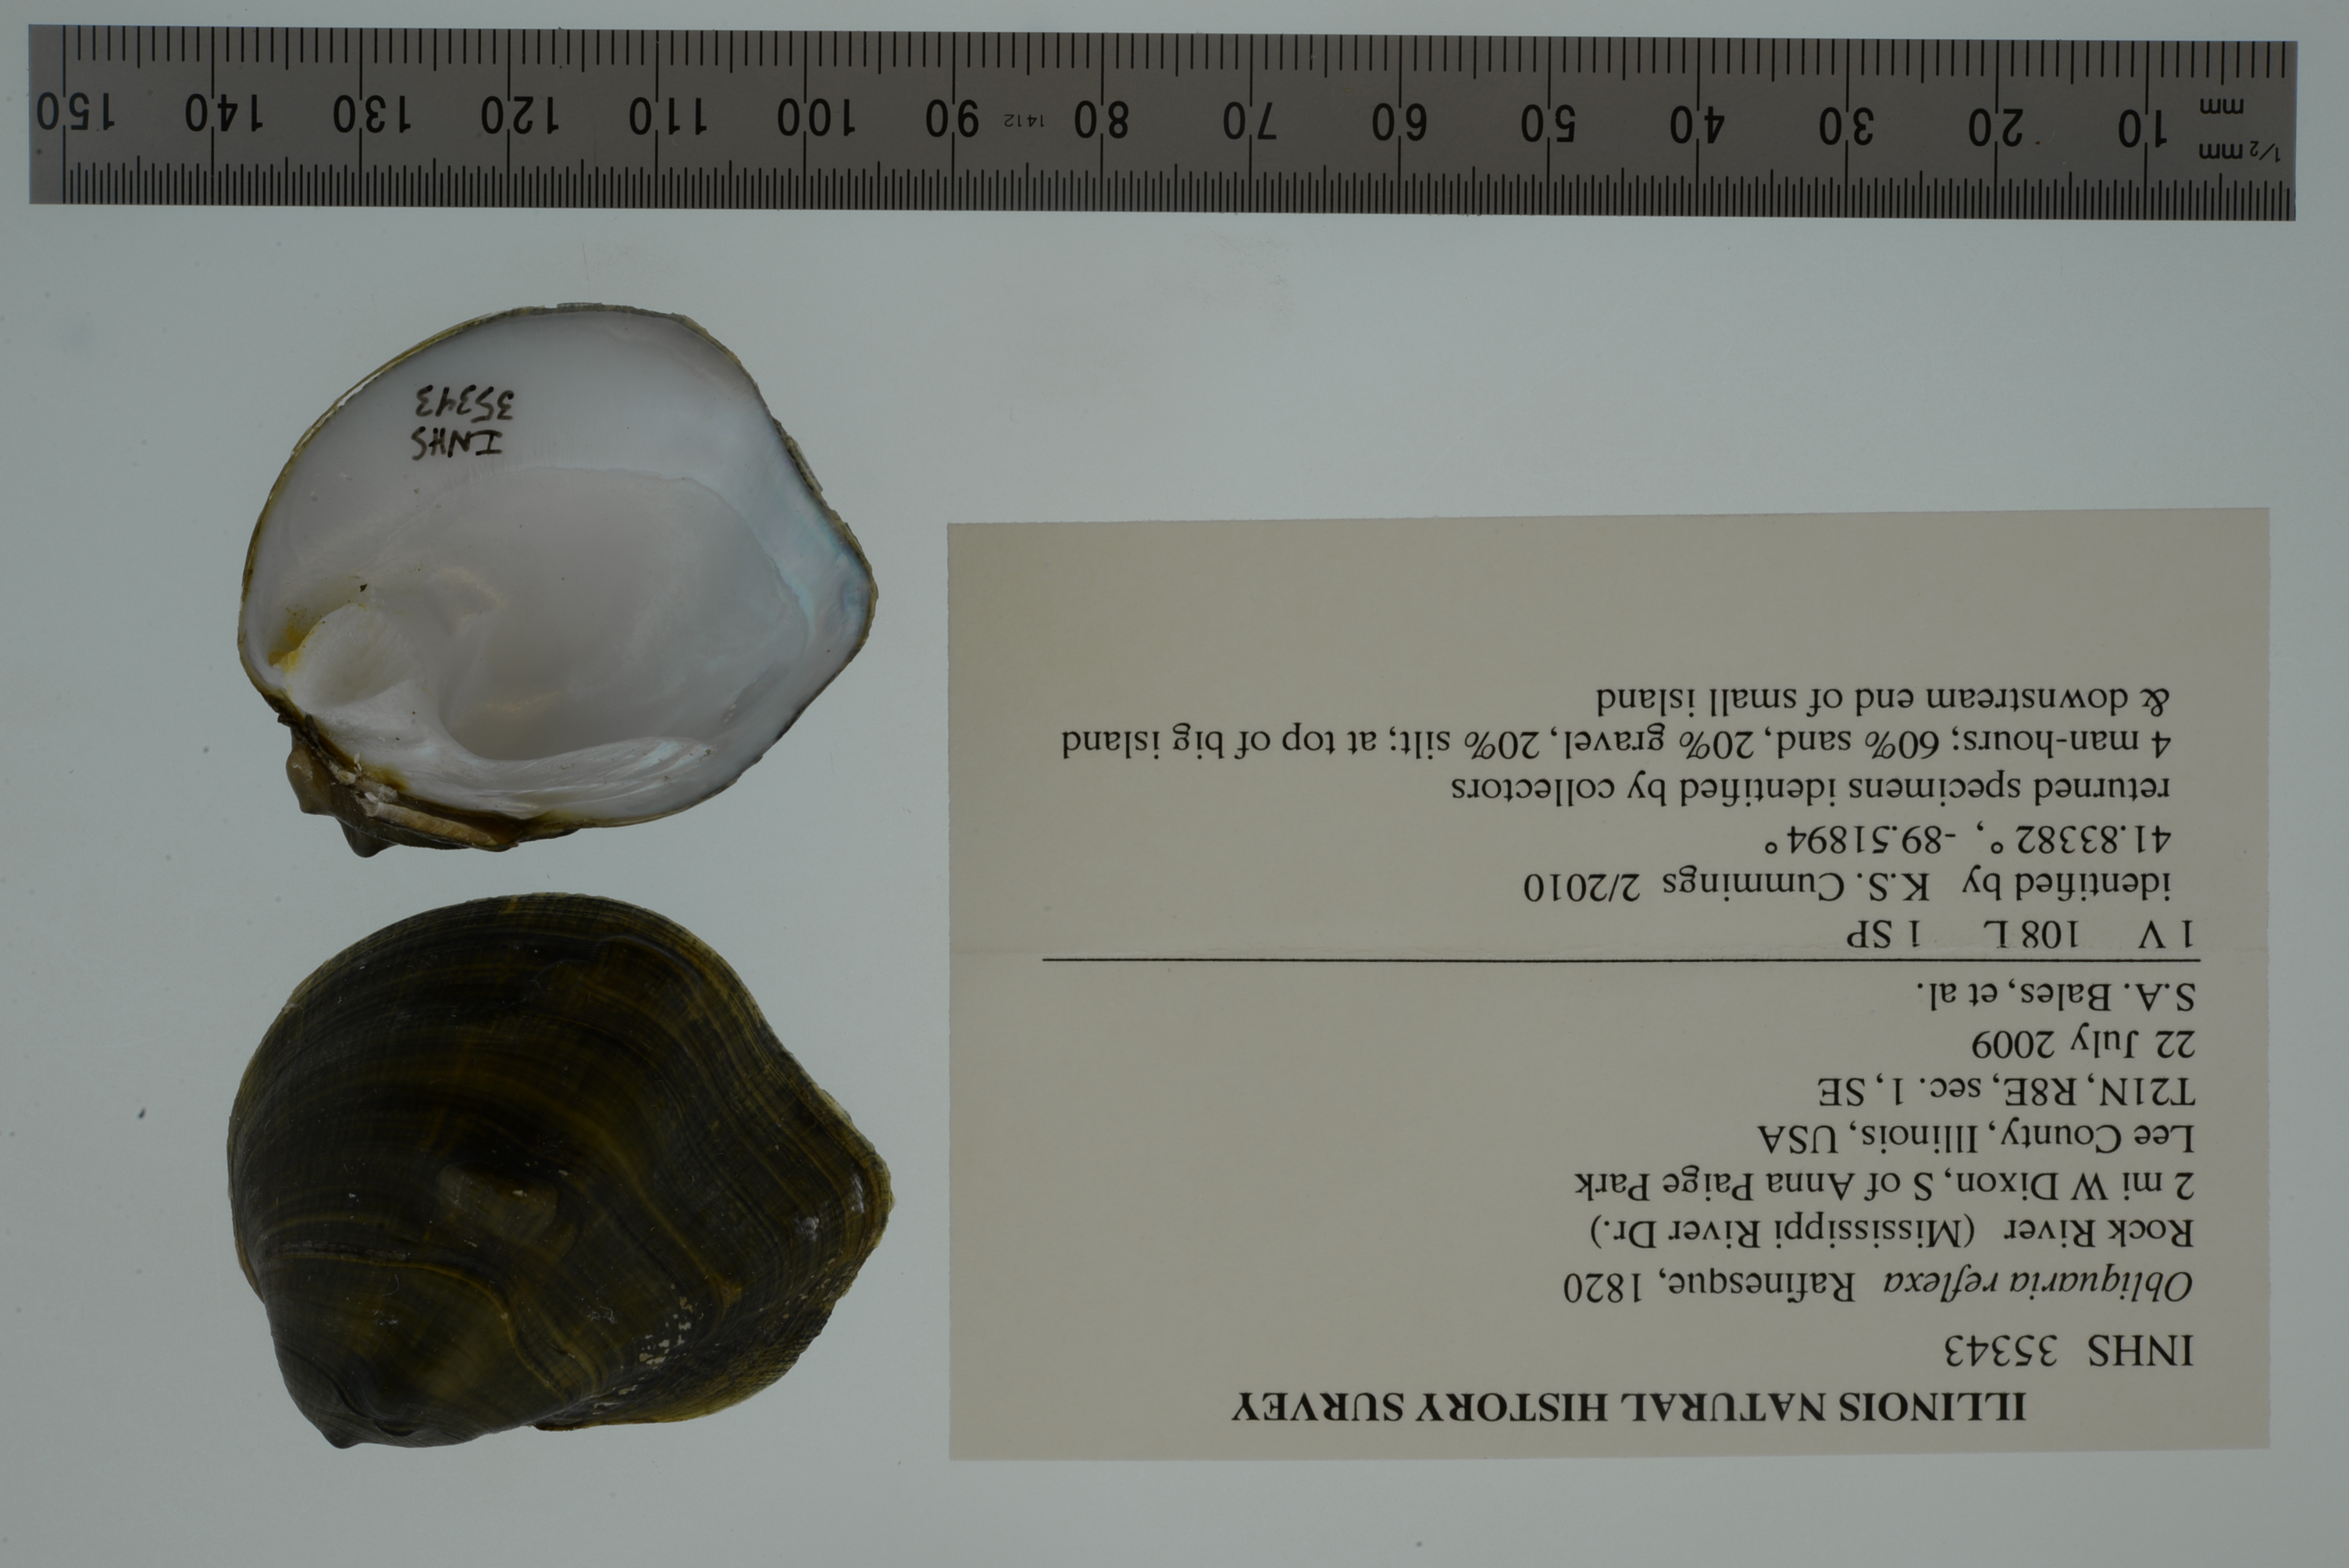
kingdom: Animalia
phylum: Mollusca
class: Bivalvia
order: Unionida
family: Unionidae
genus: Obliquaria
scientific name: Obliquaria reflexa
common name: Threehorn wartyback
